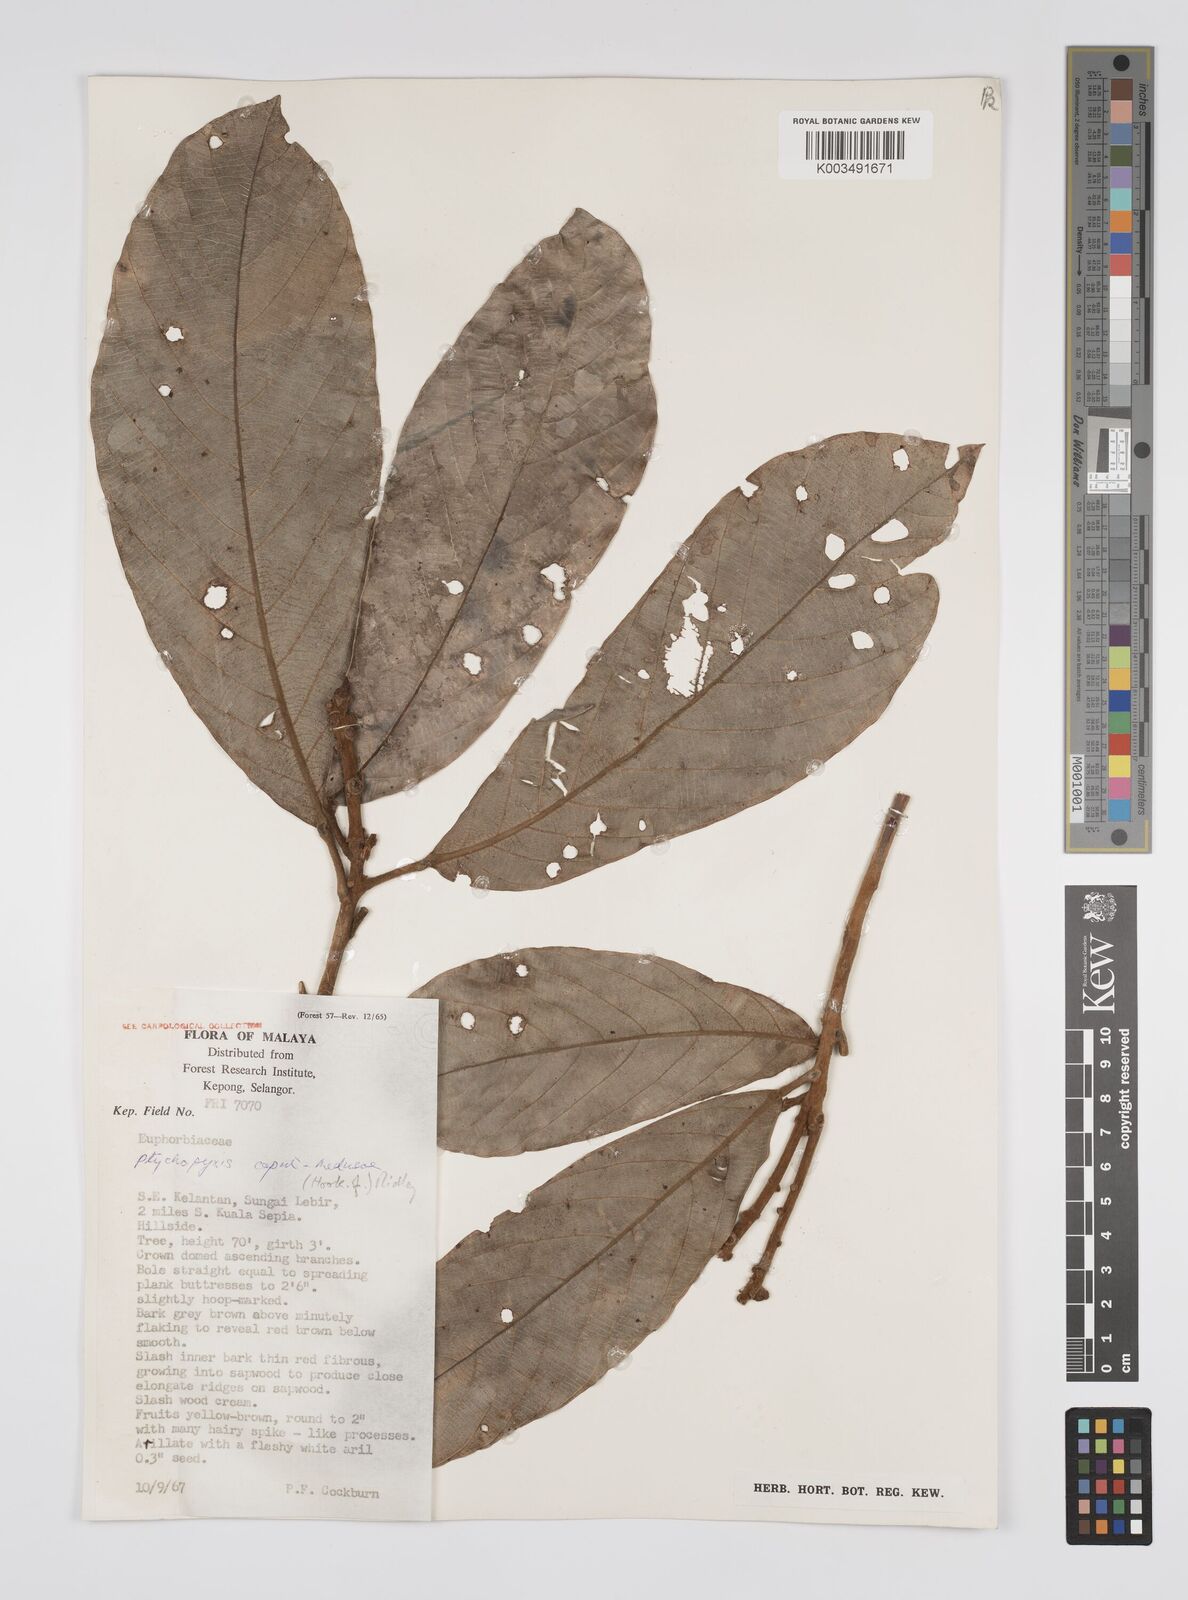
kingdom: Plantae
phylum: Tracheophyta
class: Magnoliopsida
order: Malpighiales
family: Euphorbiaceae
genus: Ptychopyxis
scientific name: Ptychopyxis caput-medusae
